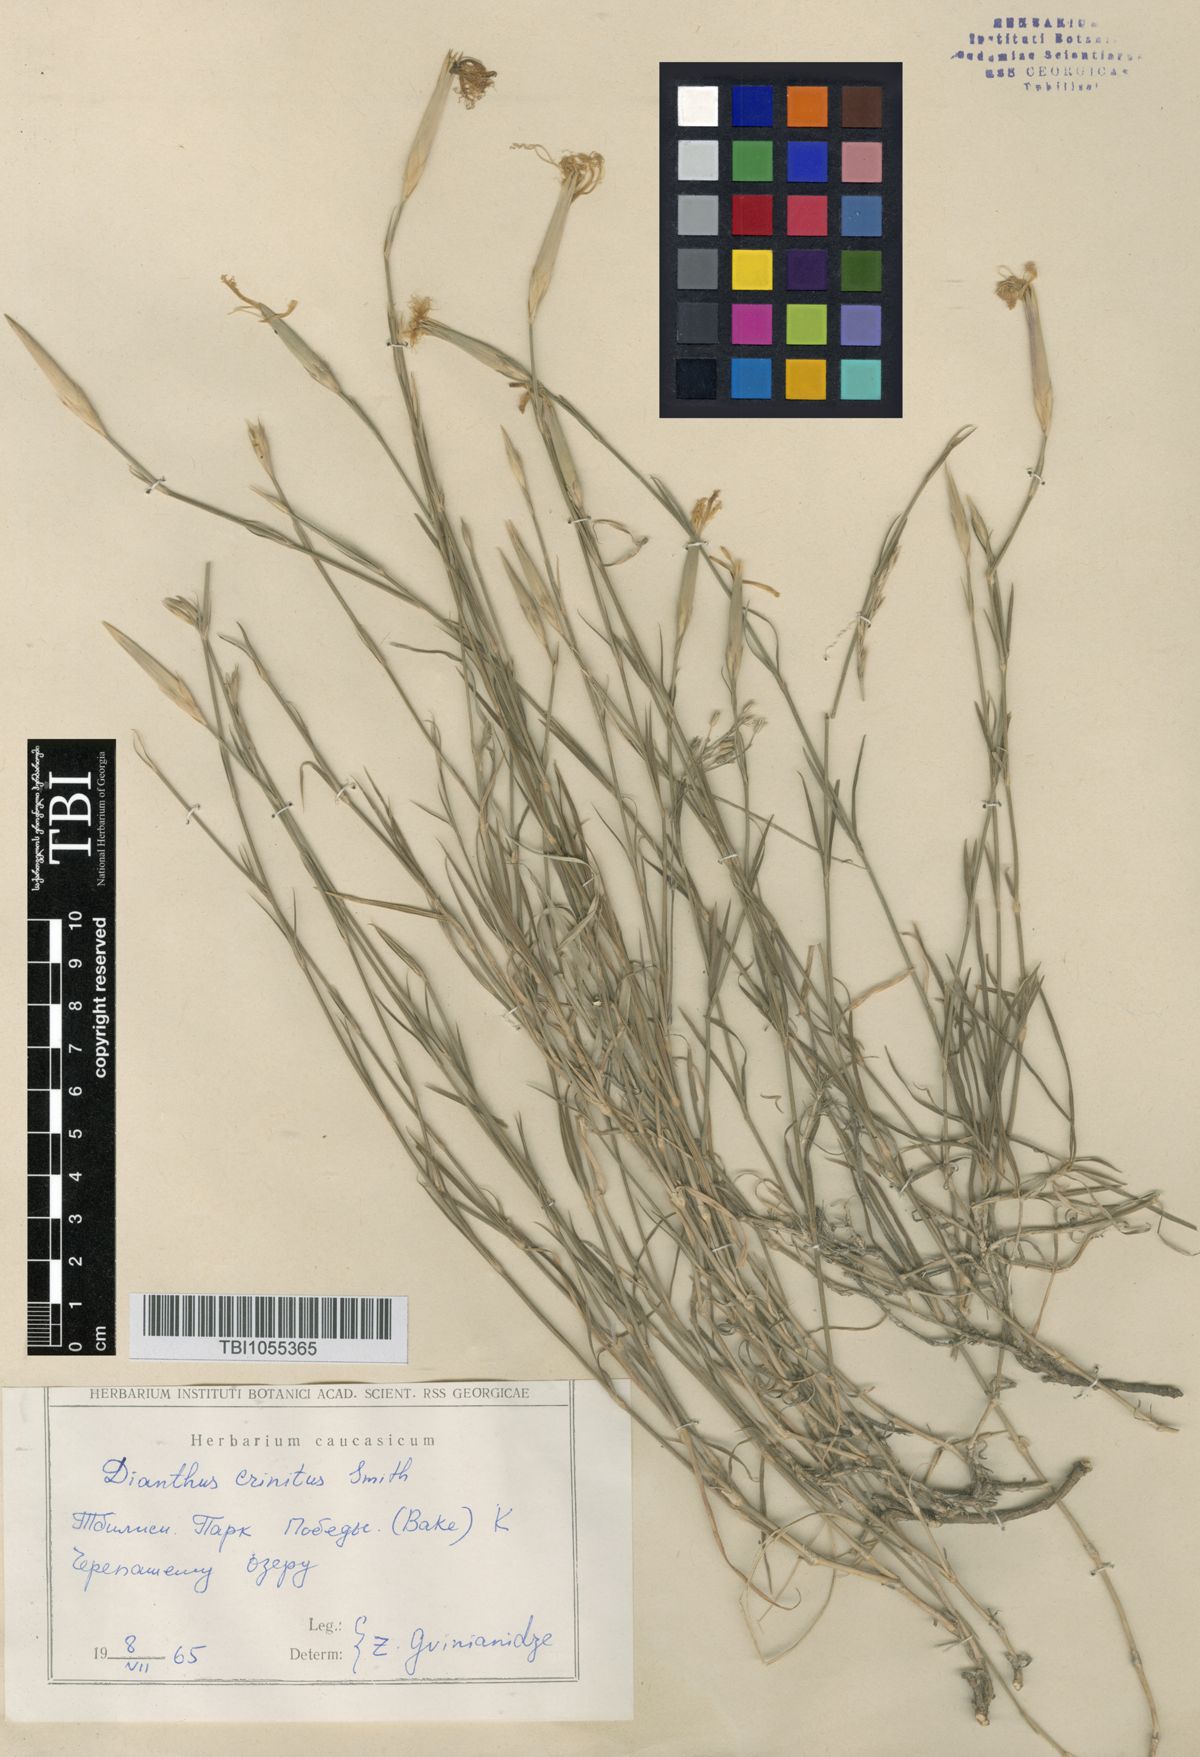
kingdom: Plantae
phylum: Tracheophyta
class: Magnoliopsida
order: Caryophyllales
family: Caryophyllaceae
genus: Dianthus
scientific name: Dianthus crinitus
